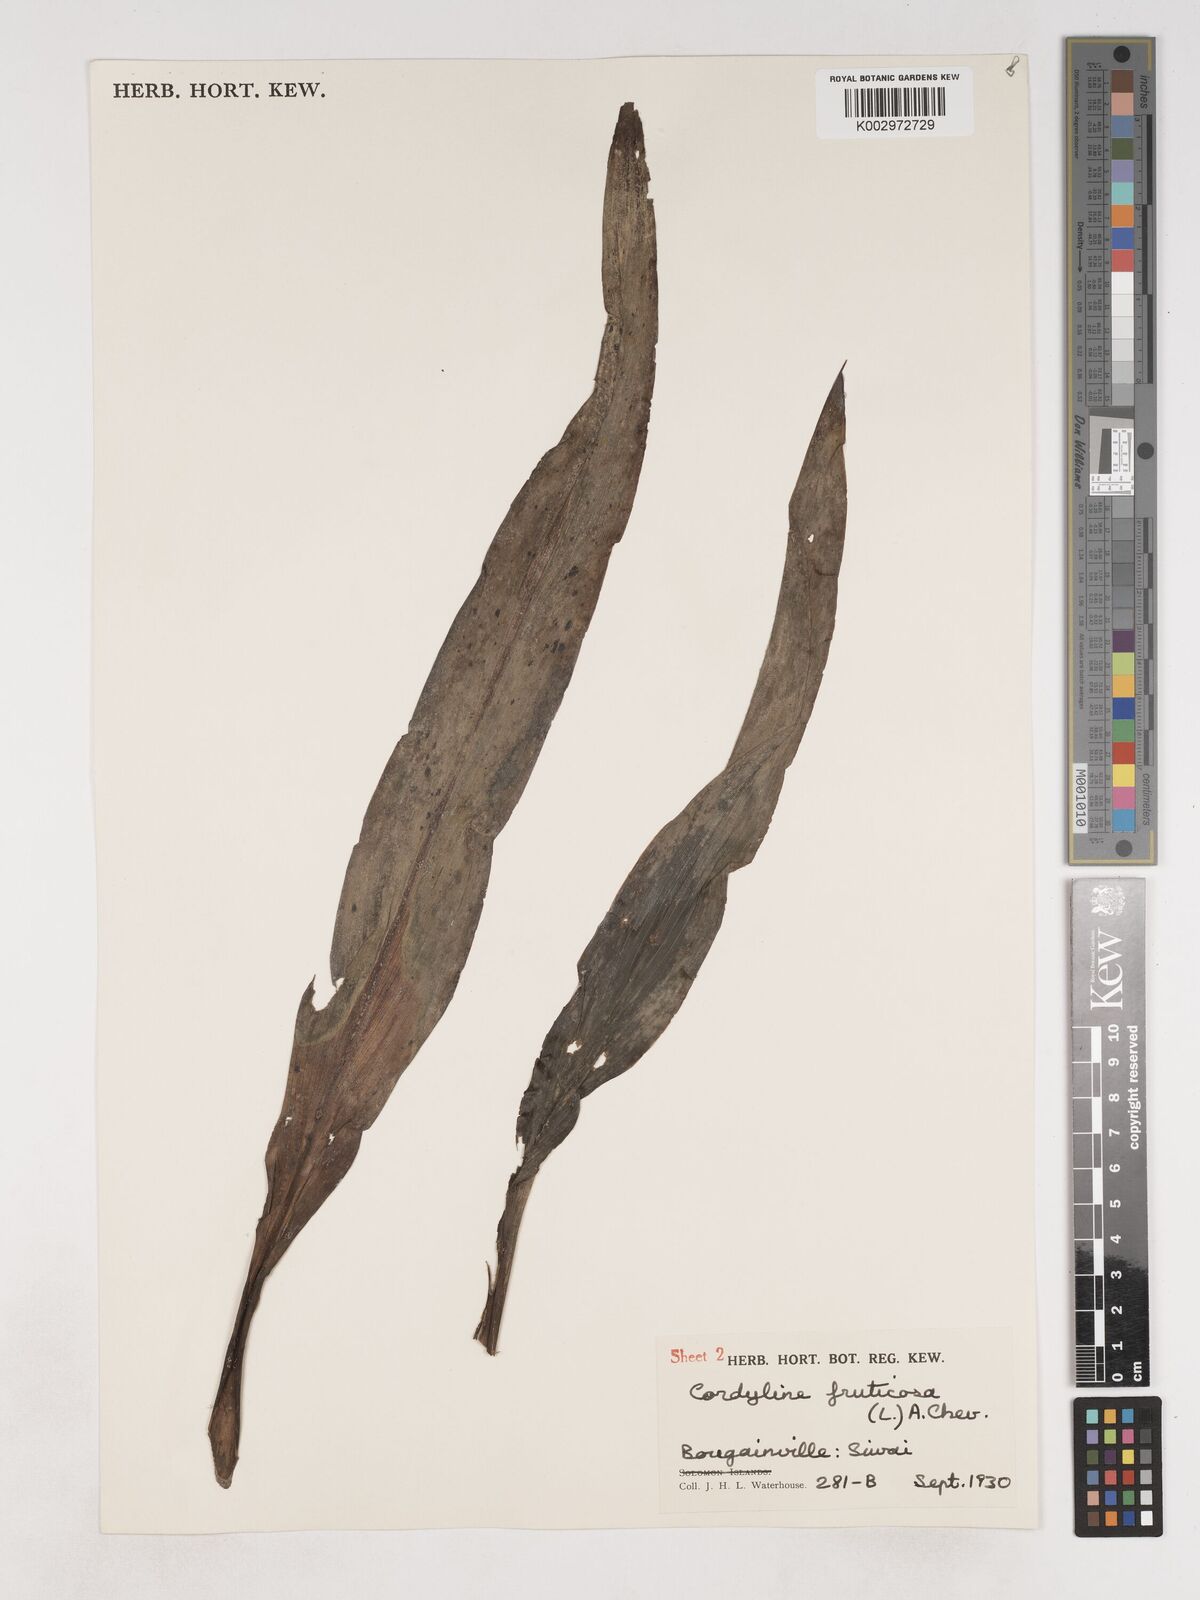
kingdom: Plantae
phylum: Tracheophyta
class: Liliopsida
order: Asparagales
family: Asparagaceae
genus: Cordyline
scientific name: Cordyline fruticosa
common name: Good-luck-plant
